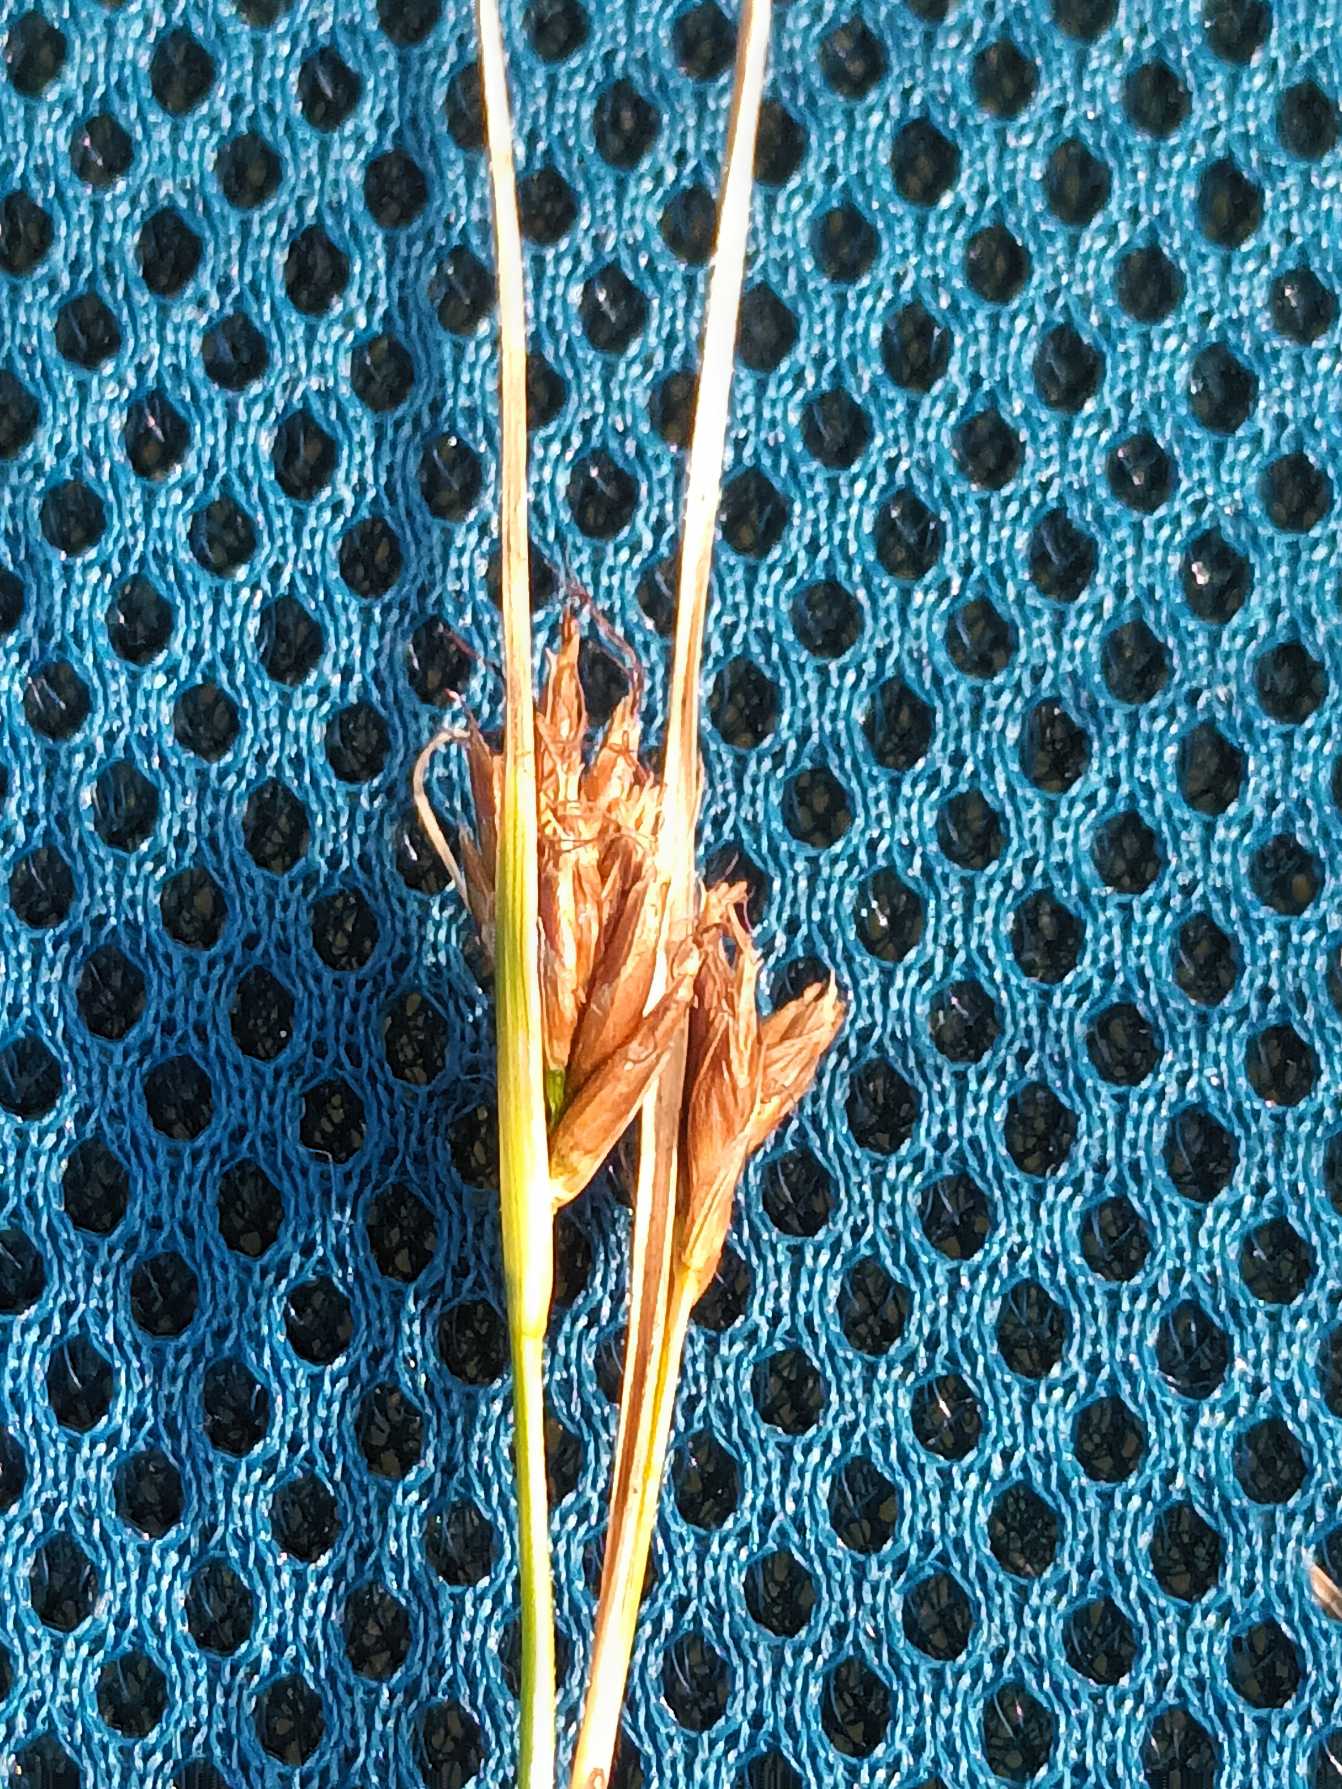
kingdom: Plantae
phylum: Tracheophyta
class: Liliopsida
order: Poales
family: Cyperaceae
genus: Rhynchospora
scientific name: Rhynchospora fusca
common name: Brun næbfrø
